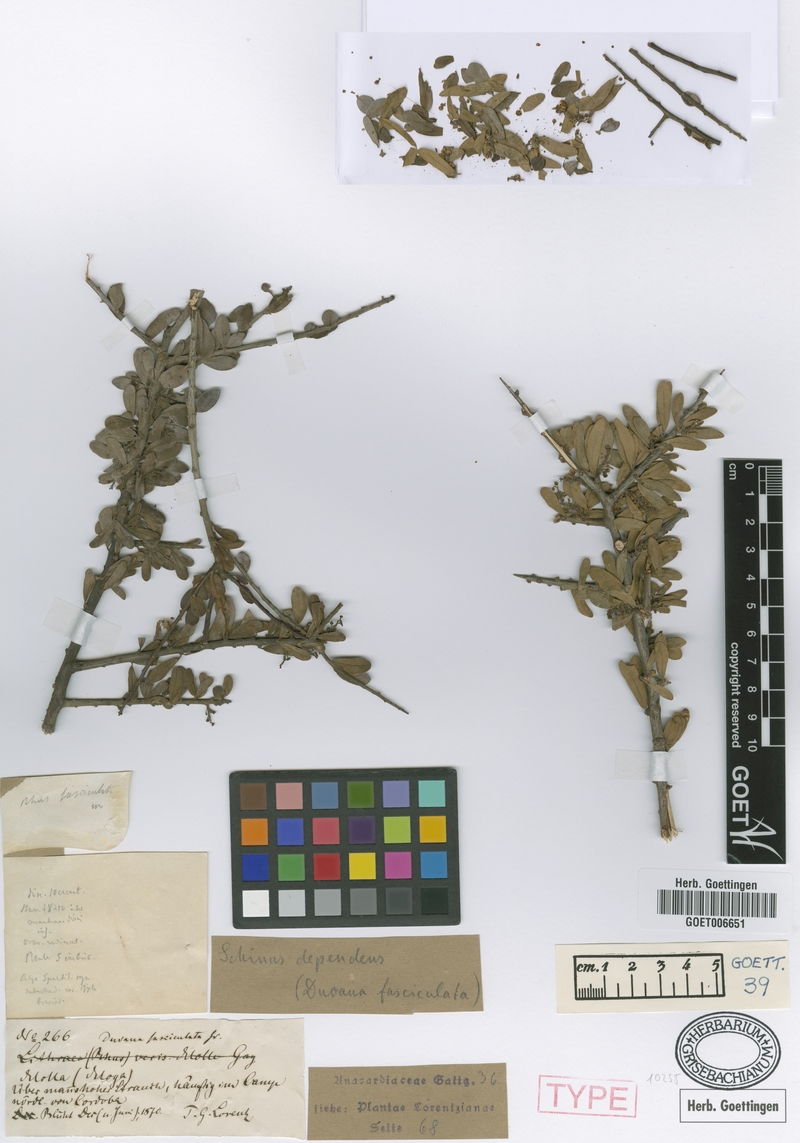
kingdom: Plantae
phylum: Tracheophyta
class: Magnoliopsida
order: Sapindales
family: Anacardiaceae
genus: Schinus
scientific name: Schinus fasciculata
